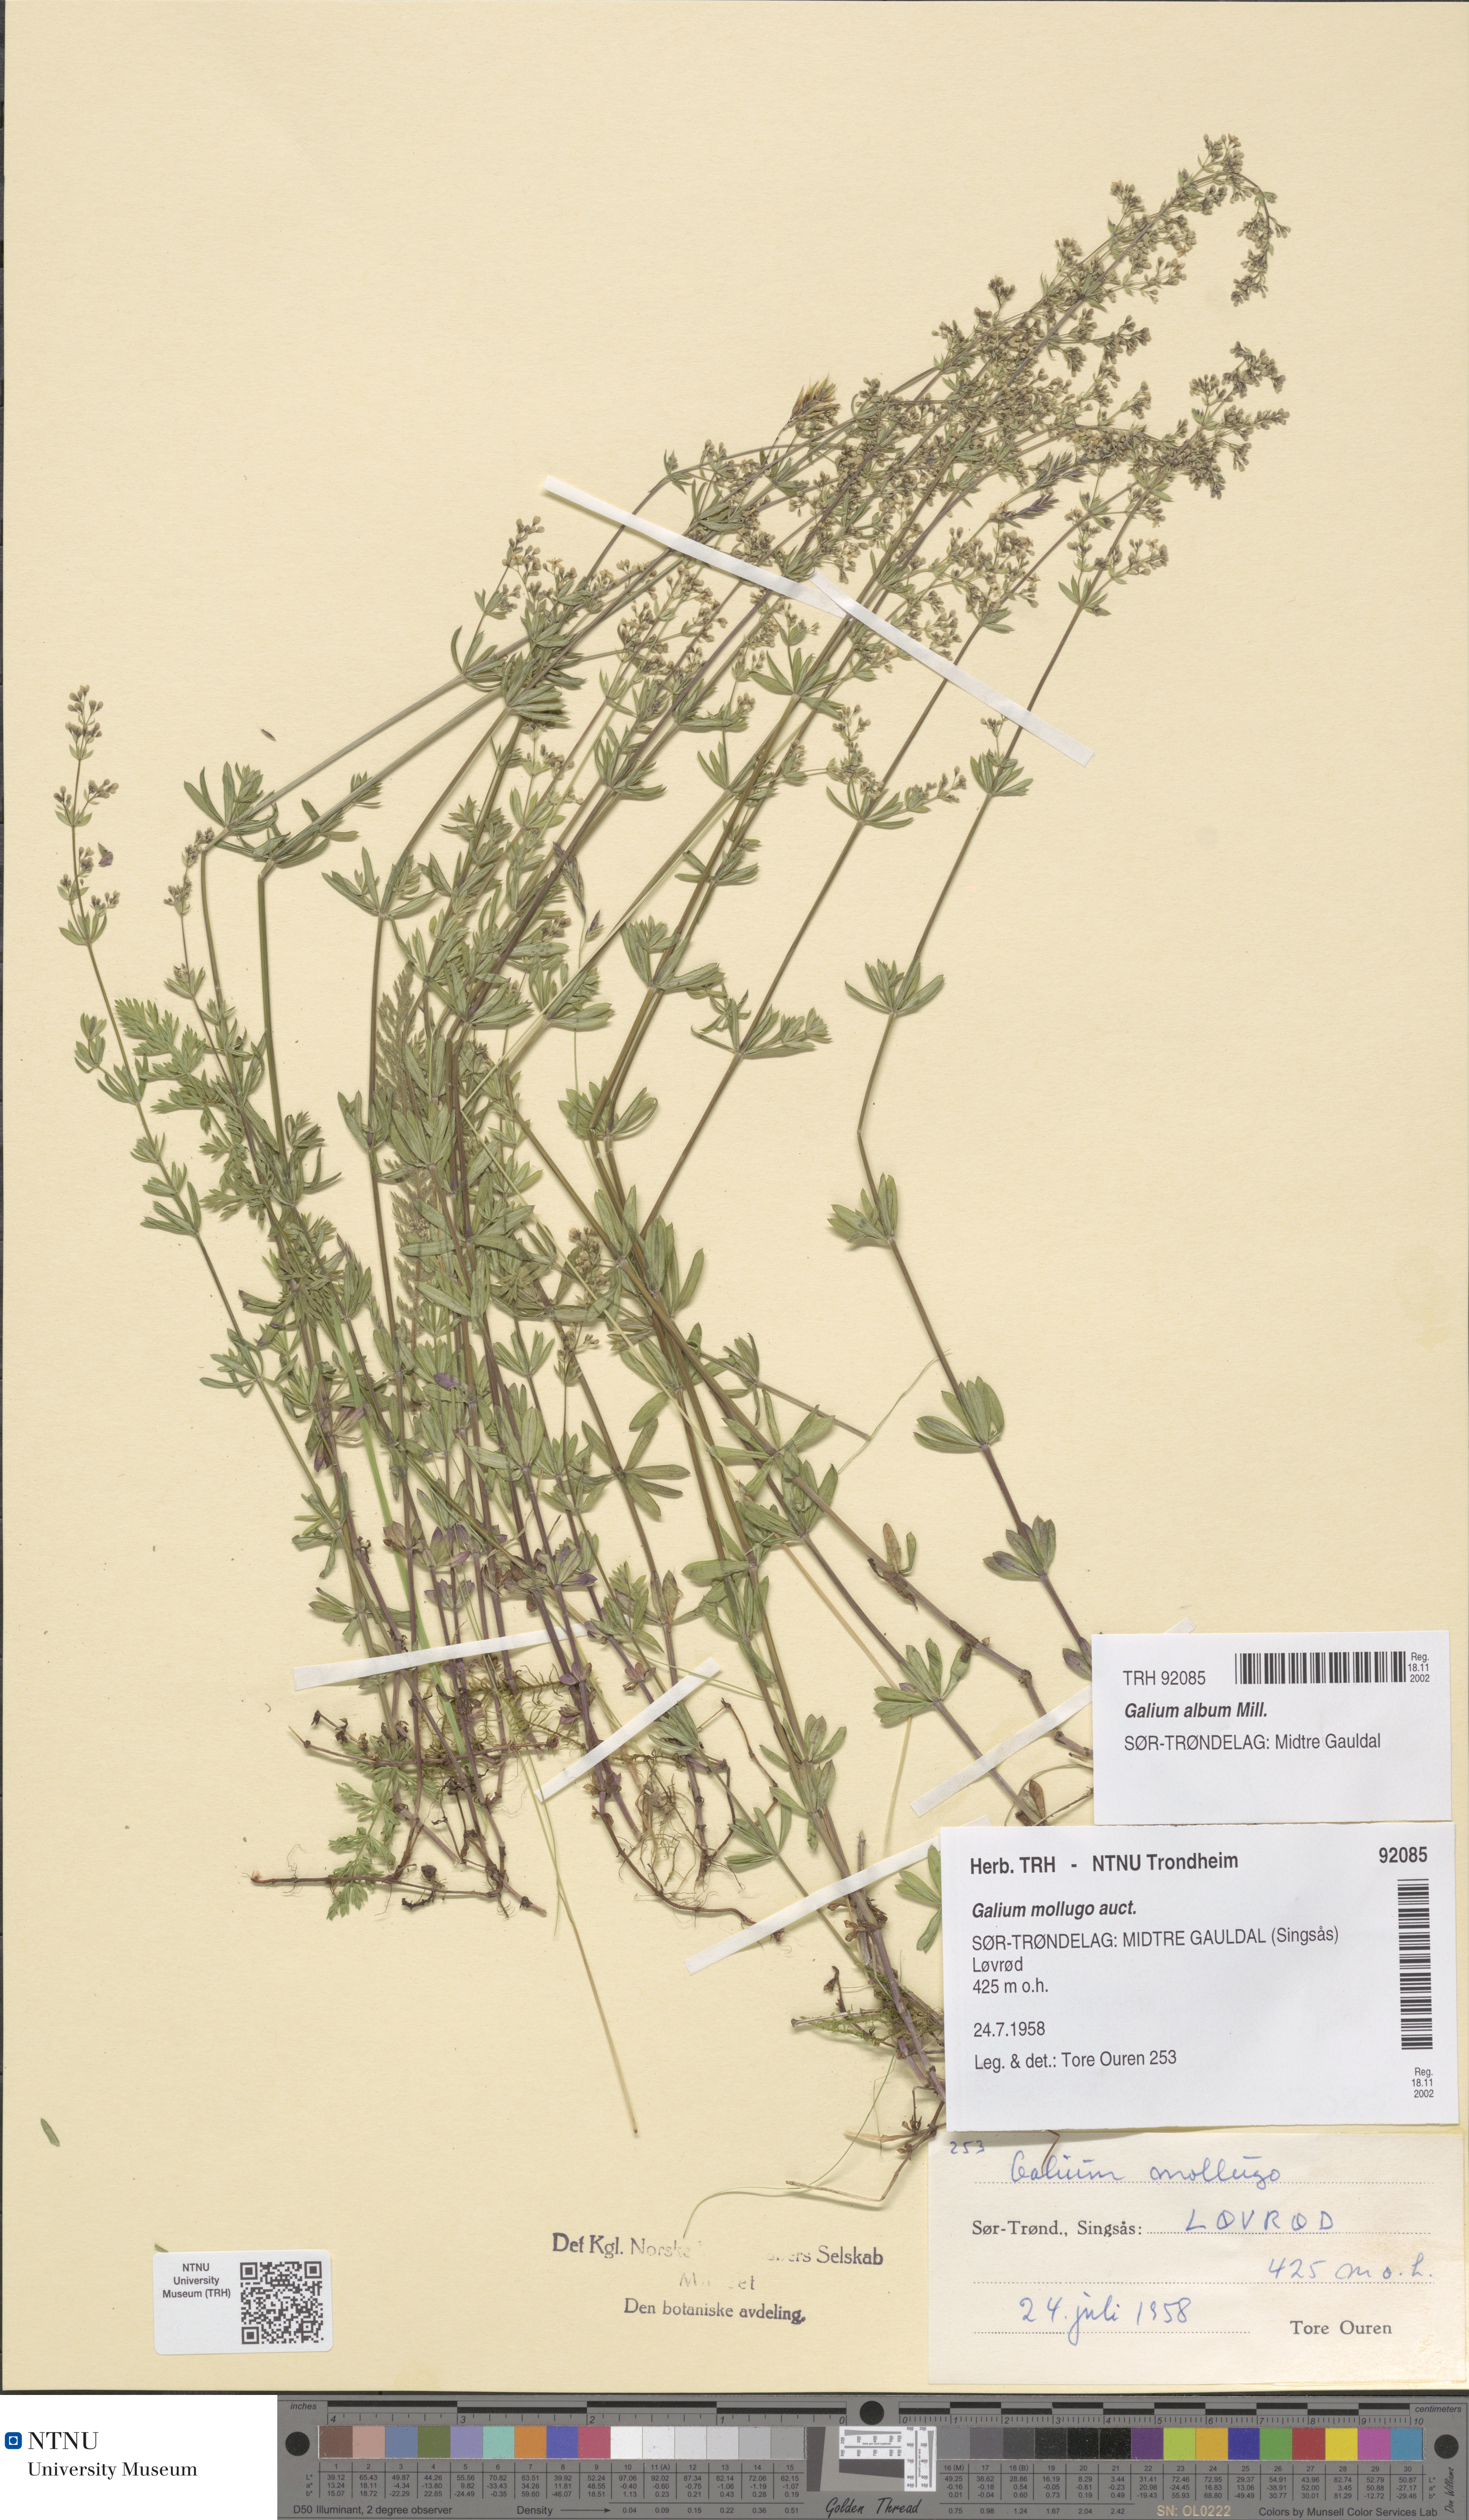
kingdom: Plantae
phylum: Tracheophyta
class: Magnoliopsida
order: Gentianales
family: Rubiaceae
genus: Galium
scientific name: Galium album
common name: White bedstraw
